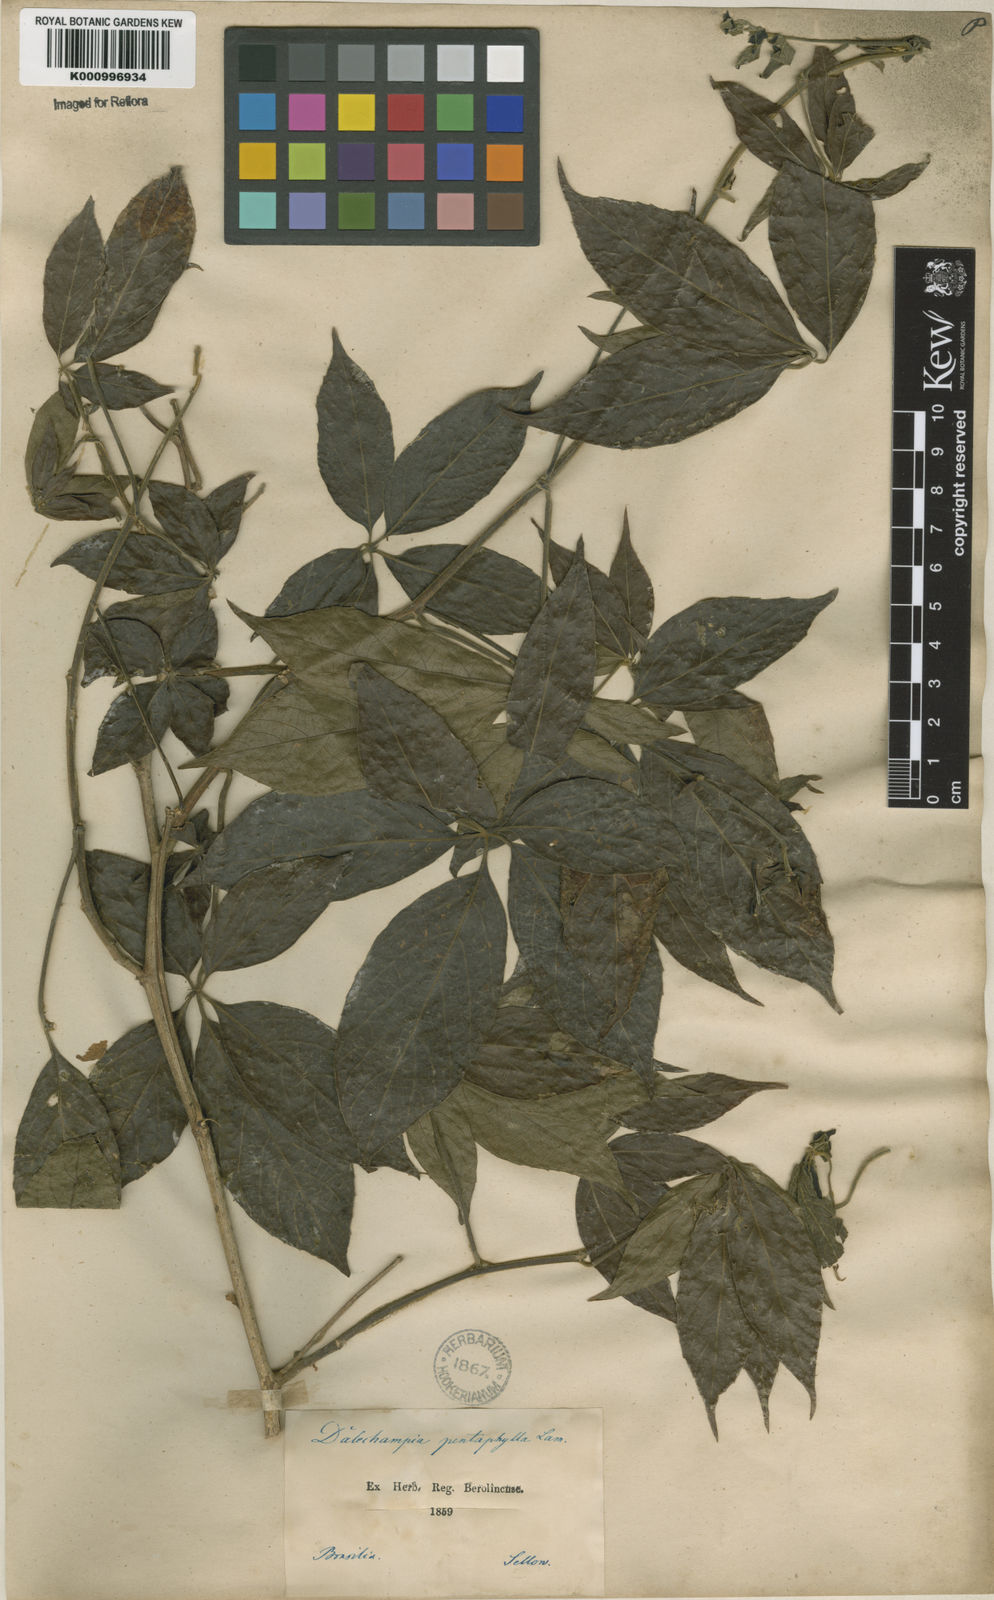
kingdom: Plantae
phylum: Tracheophyta
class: Magnoliopsida
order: Malpighiales
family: Euphorbiaceae
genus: Dalechampia
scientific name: Dalechampia pentaphylla
